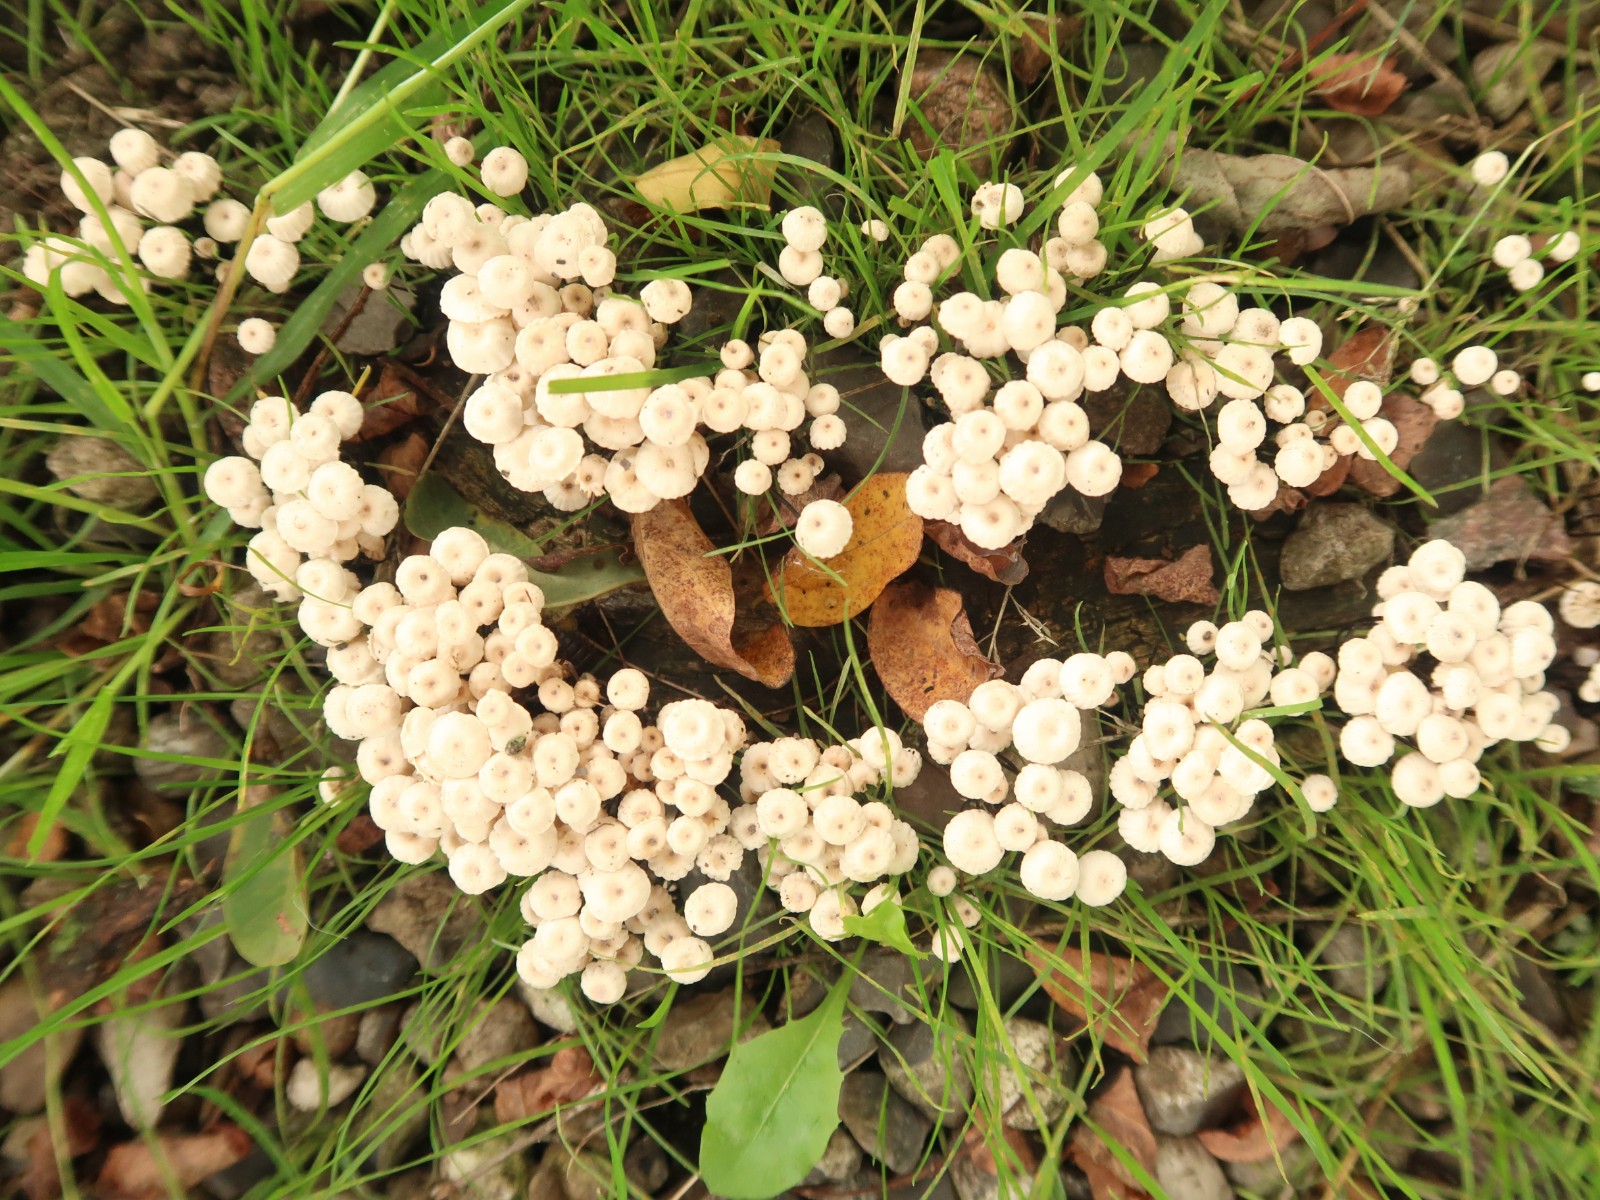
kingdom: Fungi
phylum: Basidiomycota
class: Agaricomycetes
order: Agaricales
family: Marasmiaceae
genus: Marasmius
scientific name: Marasmius rotula
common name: hjul-bruskhat
